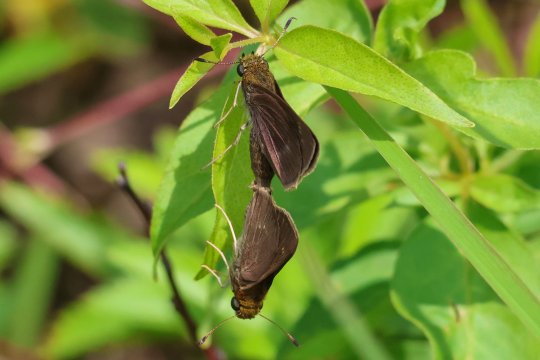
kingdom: Animalia
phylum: Arthropoda
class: Insecta
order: Lepidoptera
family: Hesperiidae
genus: Euphyes
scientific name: Euphyes vestris
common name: Dun Skipper
